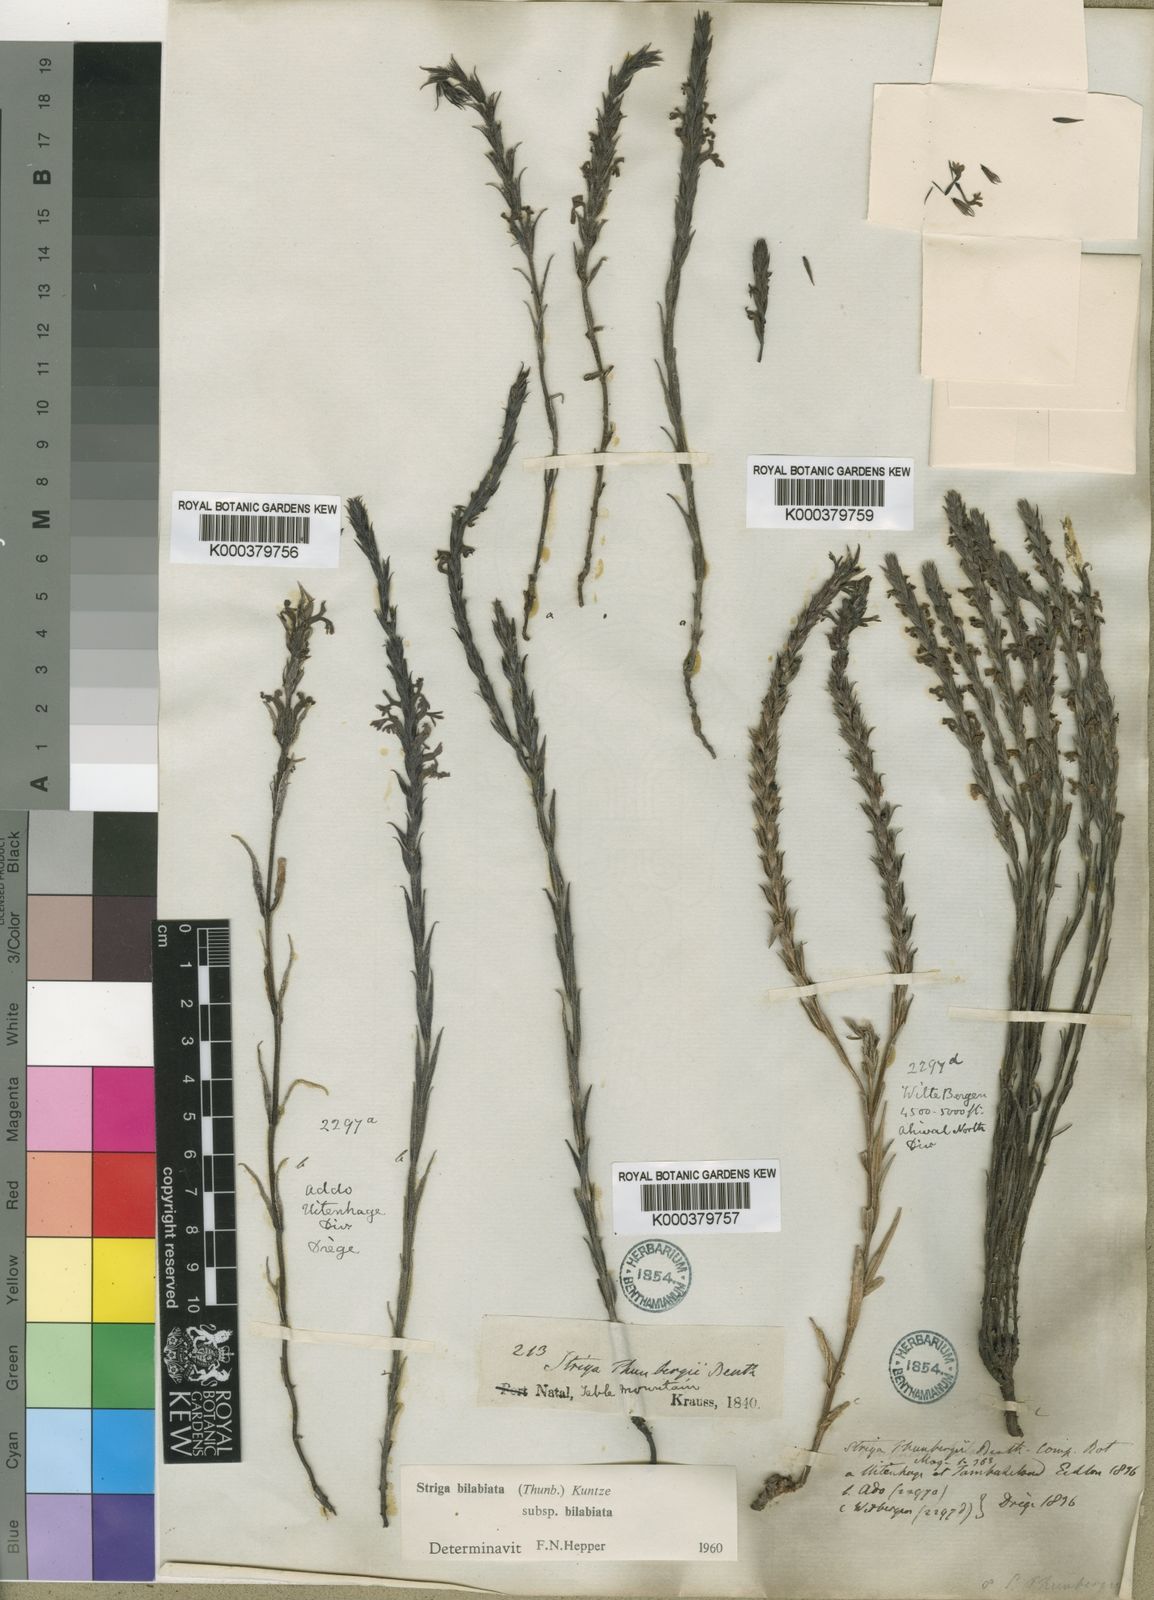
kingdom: Plantae
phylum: Tracheophyta
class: Magnoliopsida
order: Lamiales
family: Orobanchaceae
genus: Striga
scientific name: Striga bilabiata
